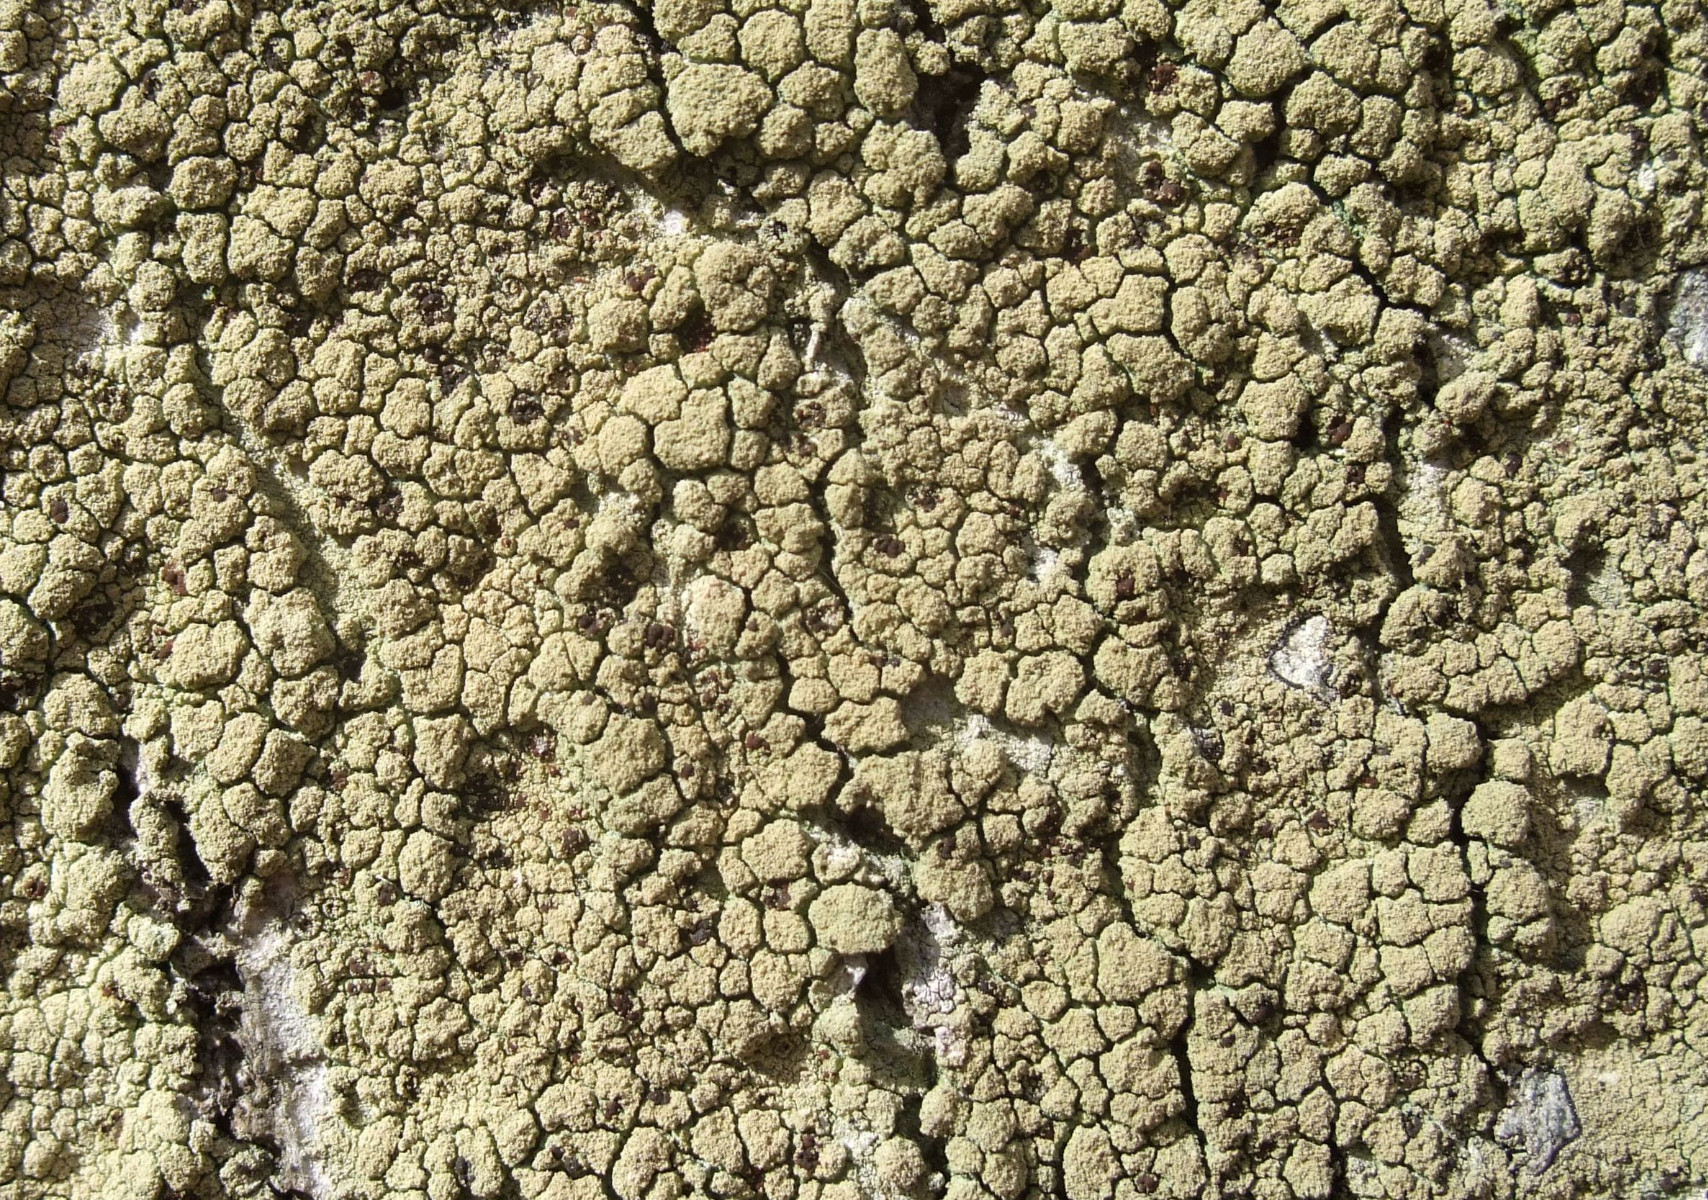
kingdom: Fungi
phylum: Ascomycota
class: Lecanoromycetes
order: Lecanorales
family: Lecanoraceae
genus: Pyrrhospora
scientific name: Pyrrhospora quernea
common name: almindelig rødskivelav
